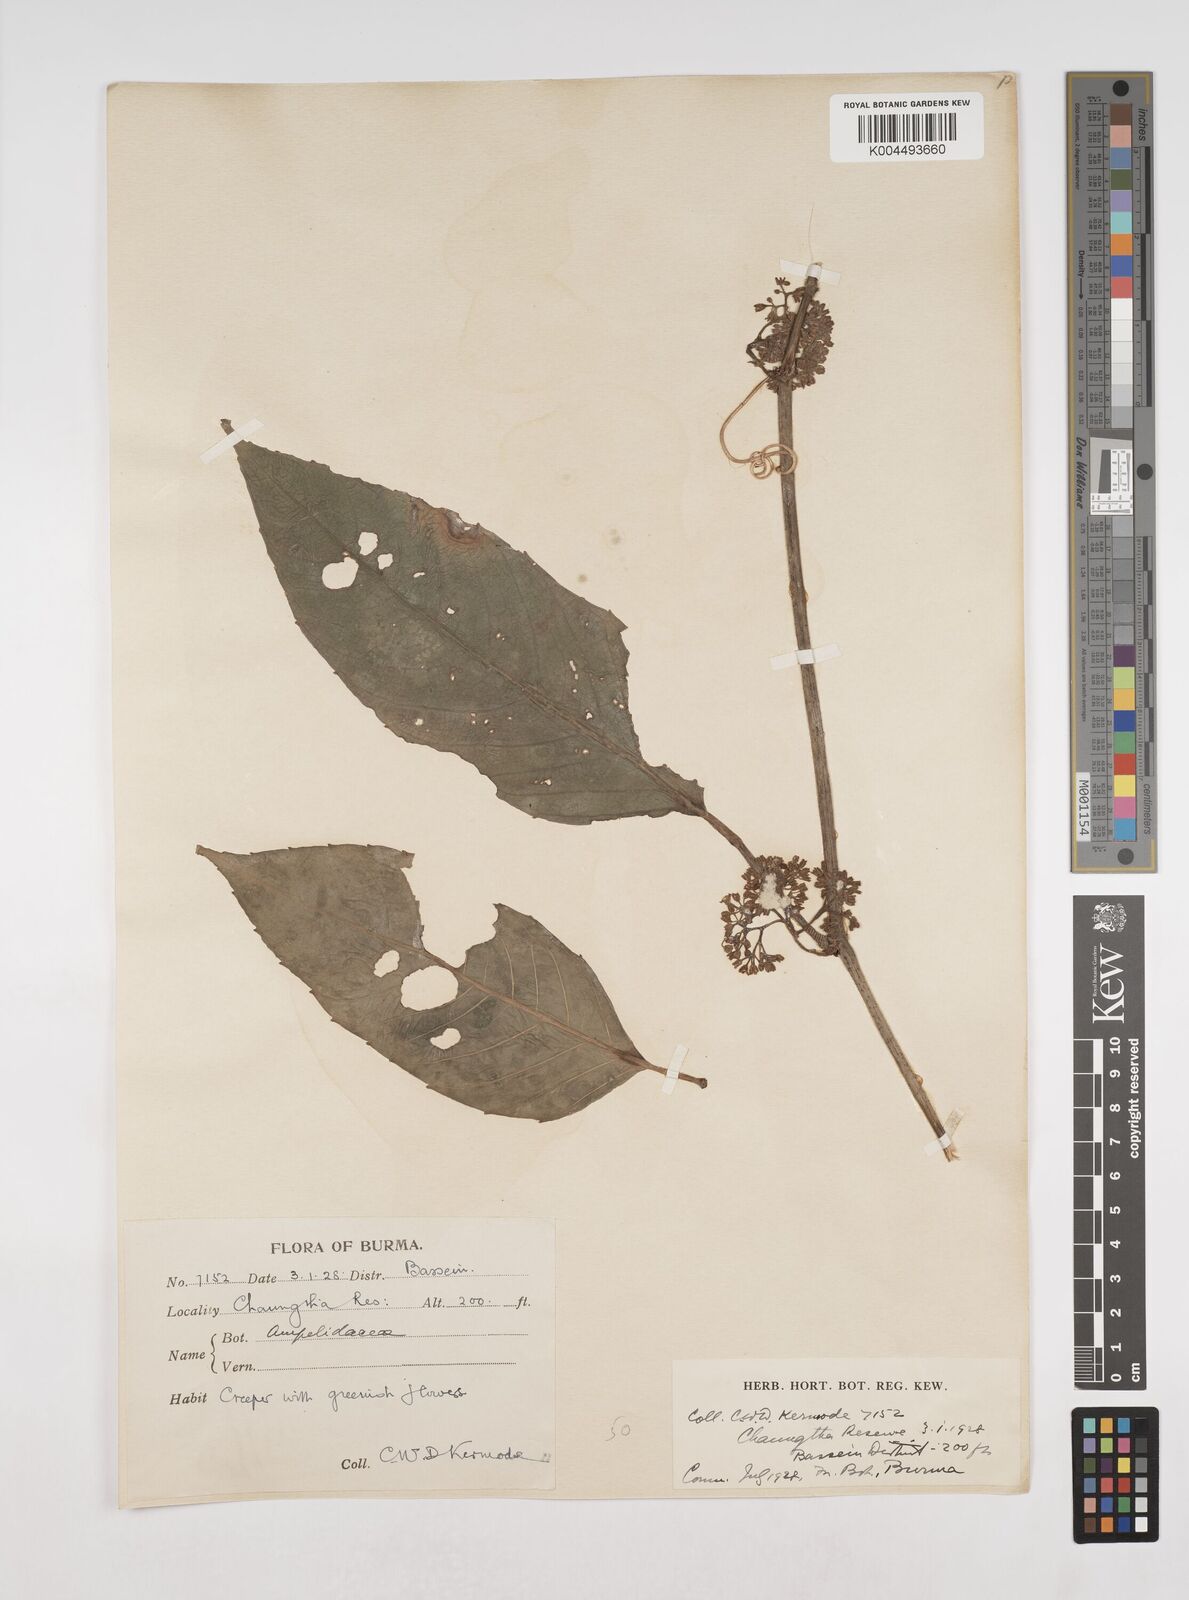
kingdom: Plantae
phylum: Tracheophyta
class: Magnoliopsida
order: Vitales
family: Vitaceae
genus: Tetrastigma
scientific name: Tetrastigma angustifolium
